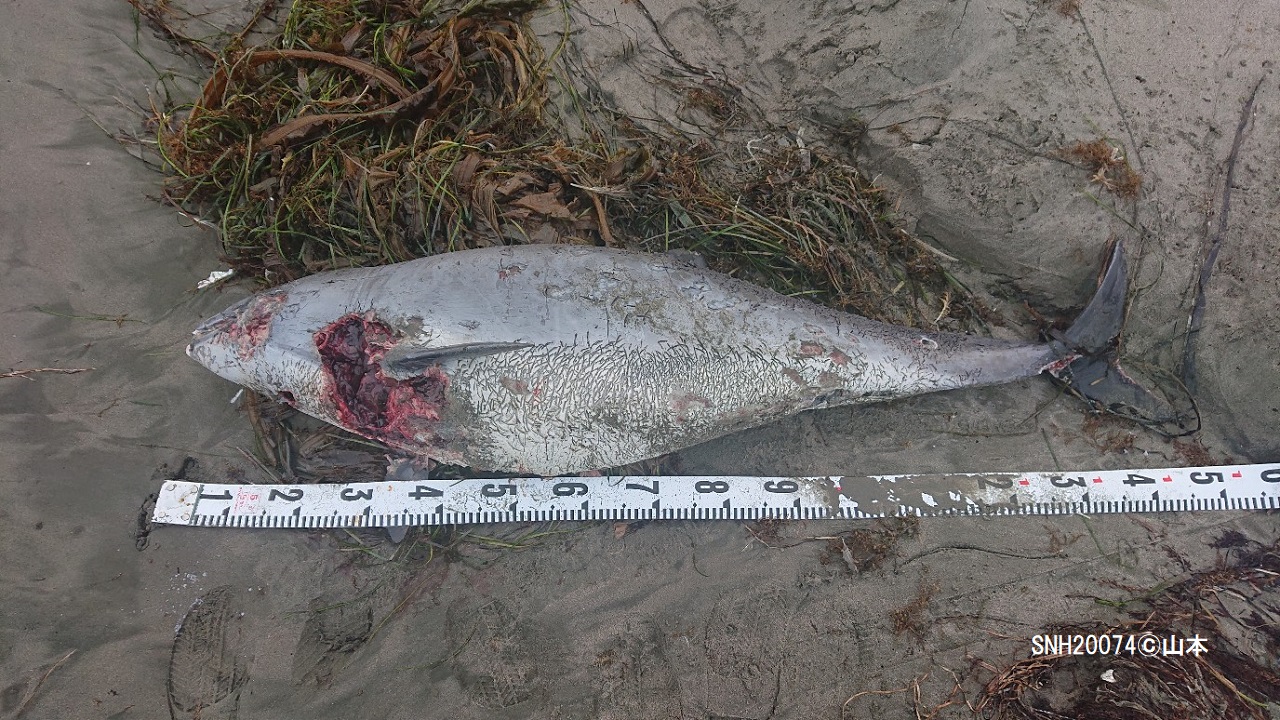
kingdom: Animalia
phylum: Chordata
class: Mammalia
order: Cetacea
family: Phocoenidae
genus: Phocoena
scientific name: Phocoena phocoena
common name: Harbour porpoise
